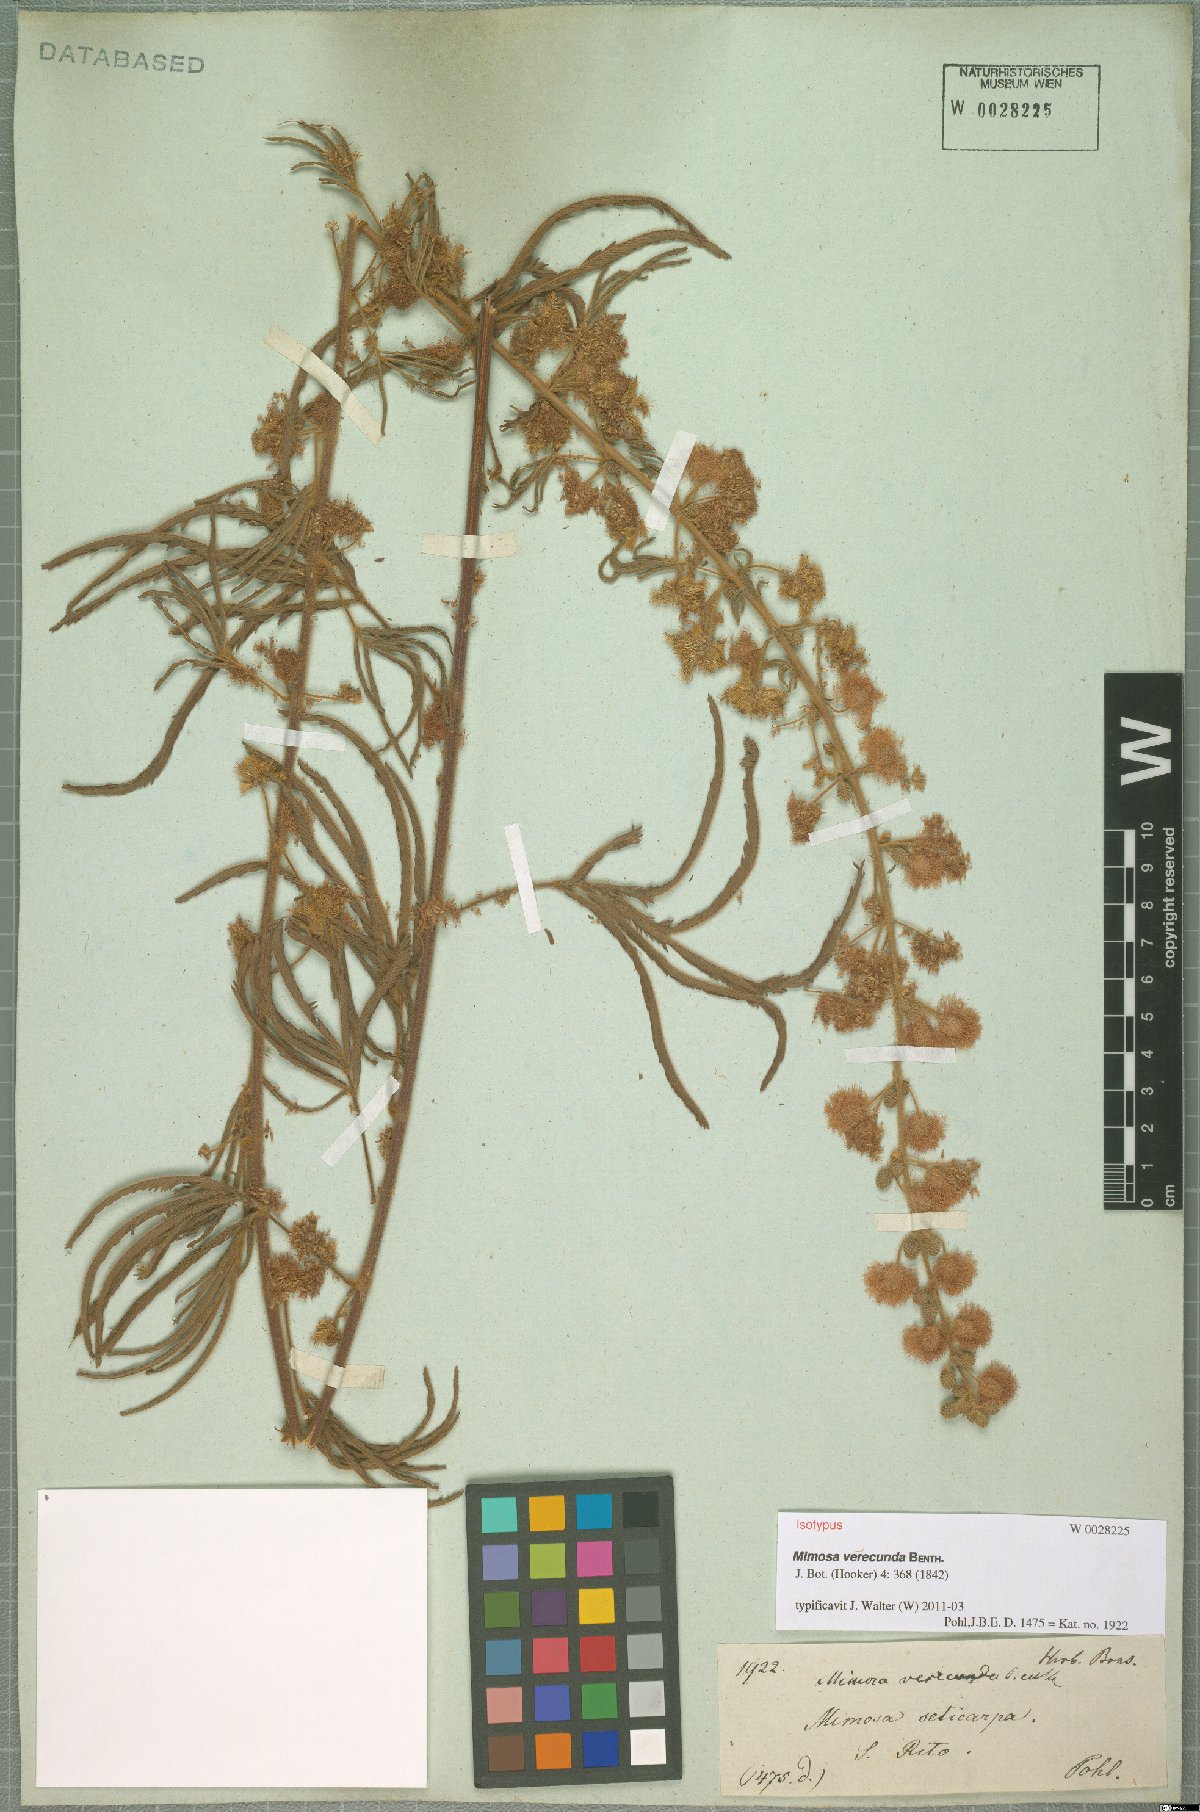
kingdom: Plantae
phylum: Tracheophyta
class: Magnoliopsida
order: Fabales
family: Fabaceae
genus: Mimosa
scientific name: Mimosa verecunda
